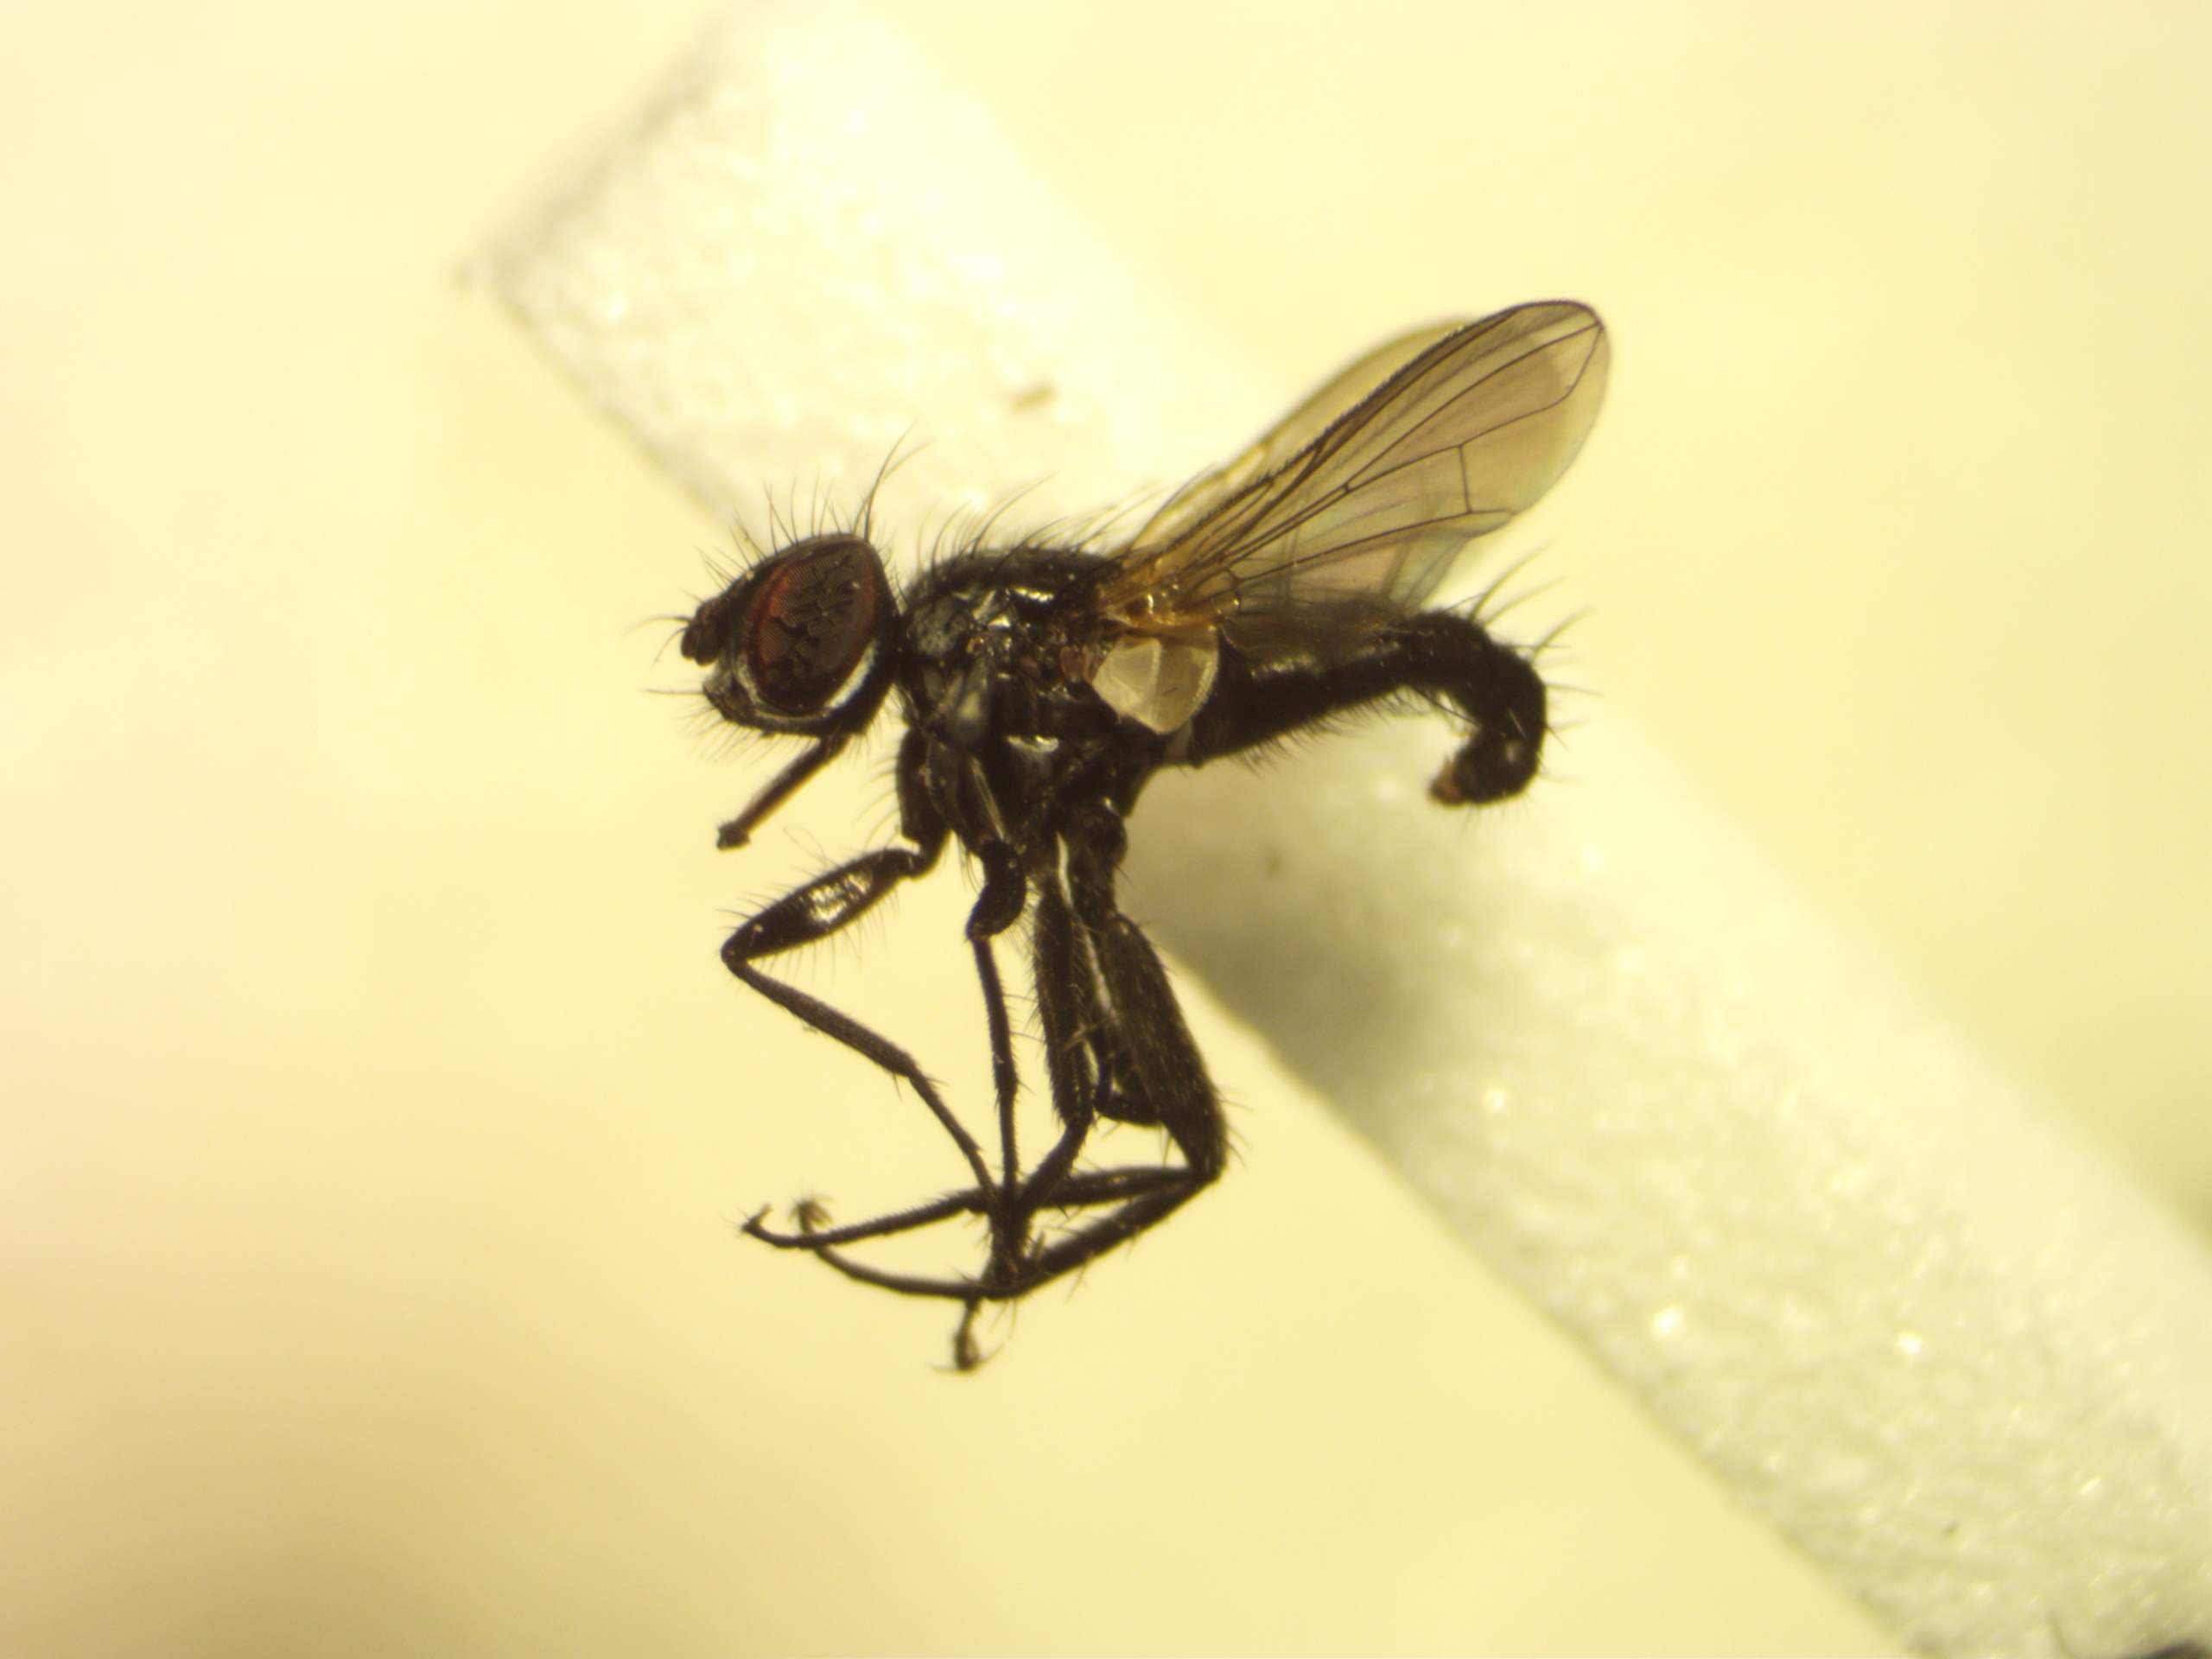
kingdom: Animalia
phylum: Arthropoda
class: Insecta
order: Diptera
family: Tachinidae
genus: Phania
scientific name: Phania funesta
